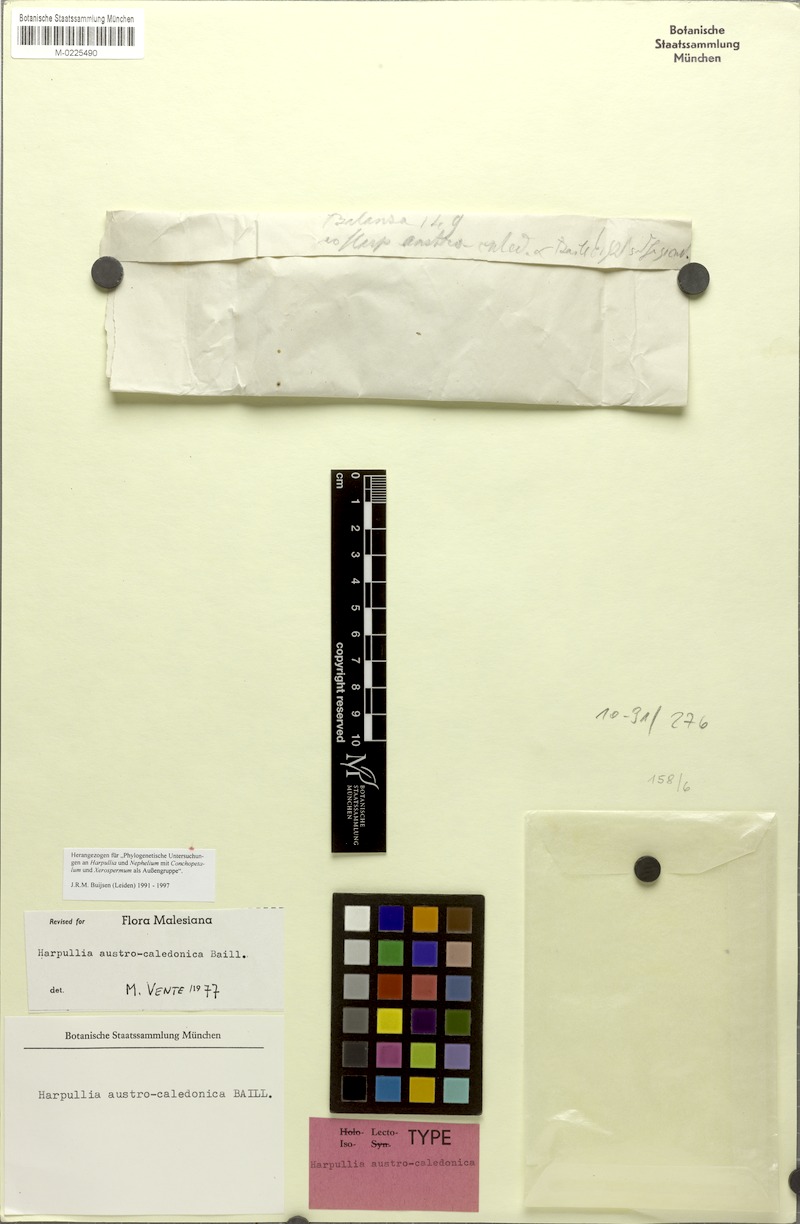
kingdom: Plantae
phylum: Tracheophyta
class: Magnoliopsida
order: Sapindales
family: Sapindaceae
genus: Harpullia
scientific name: Harpullia austrocaledonica
